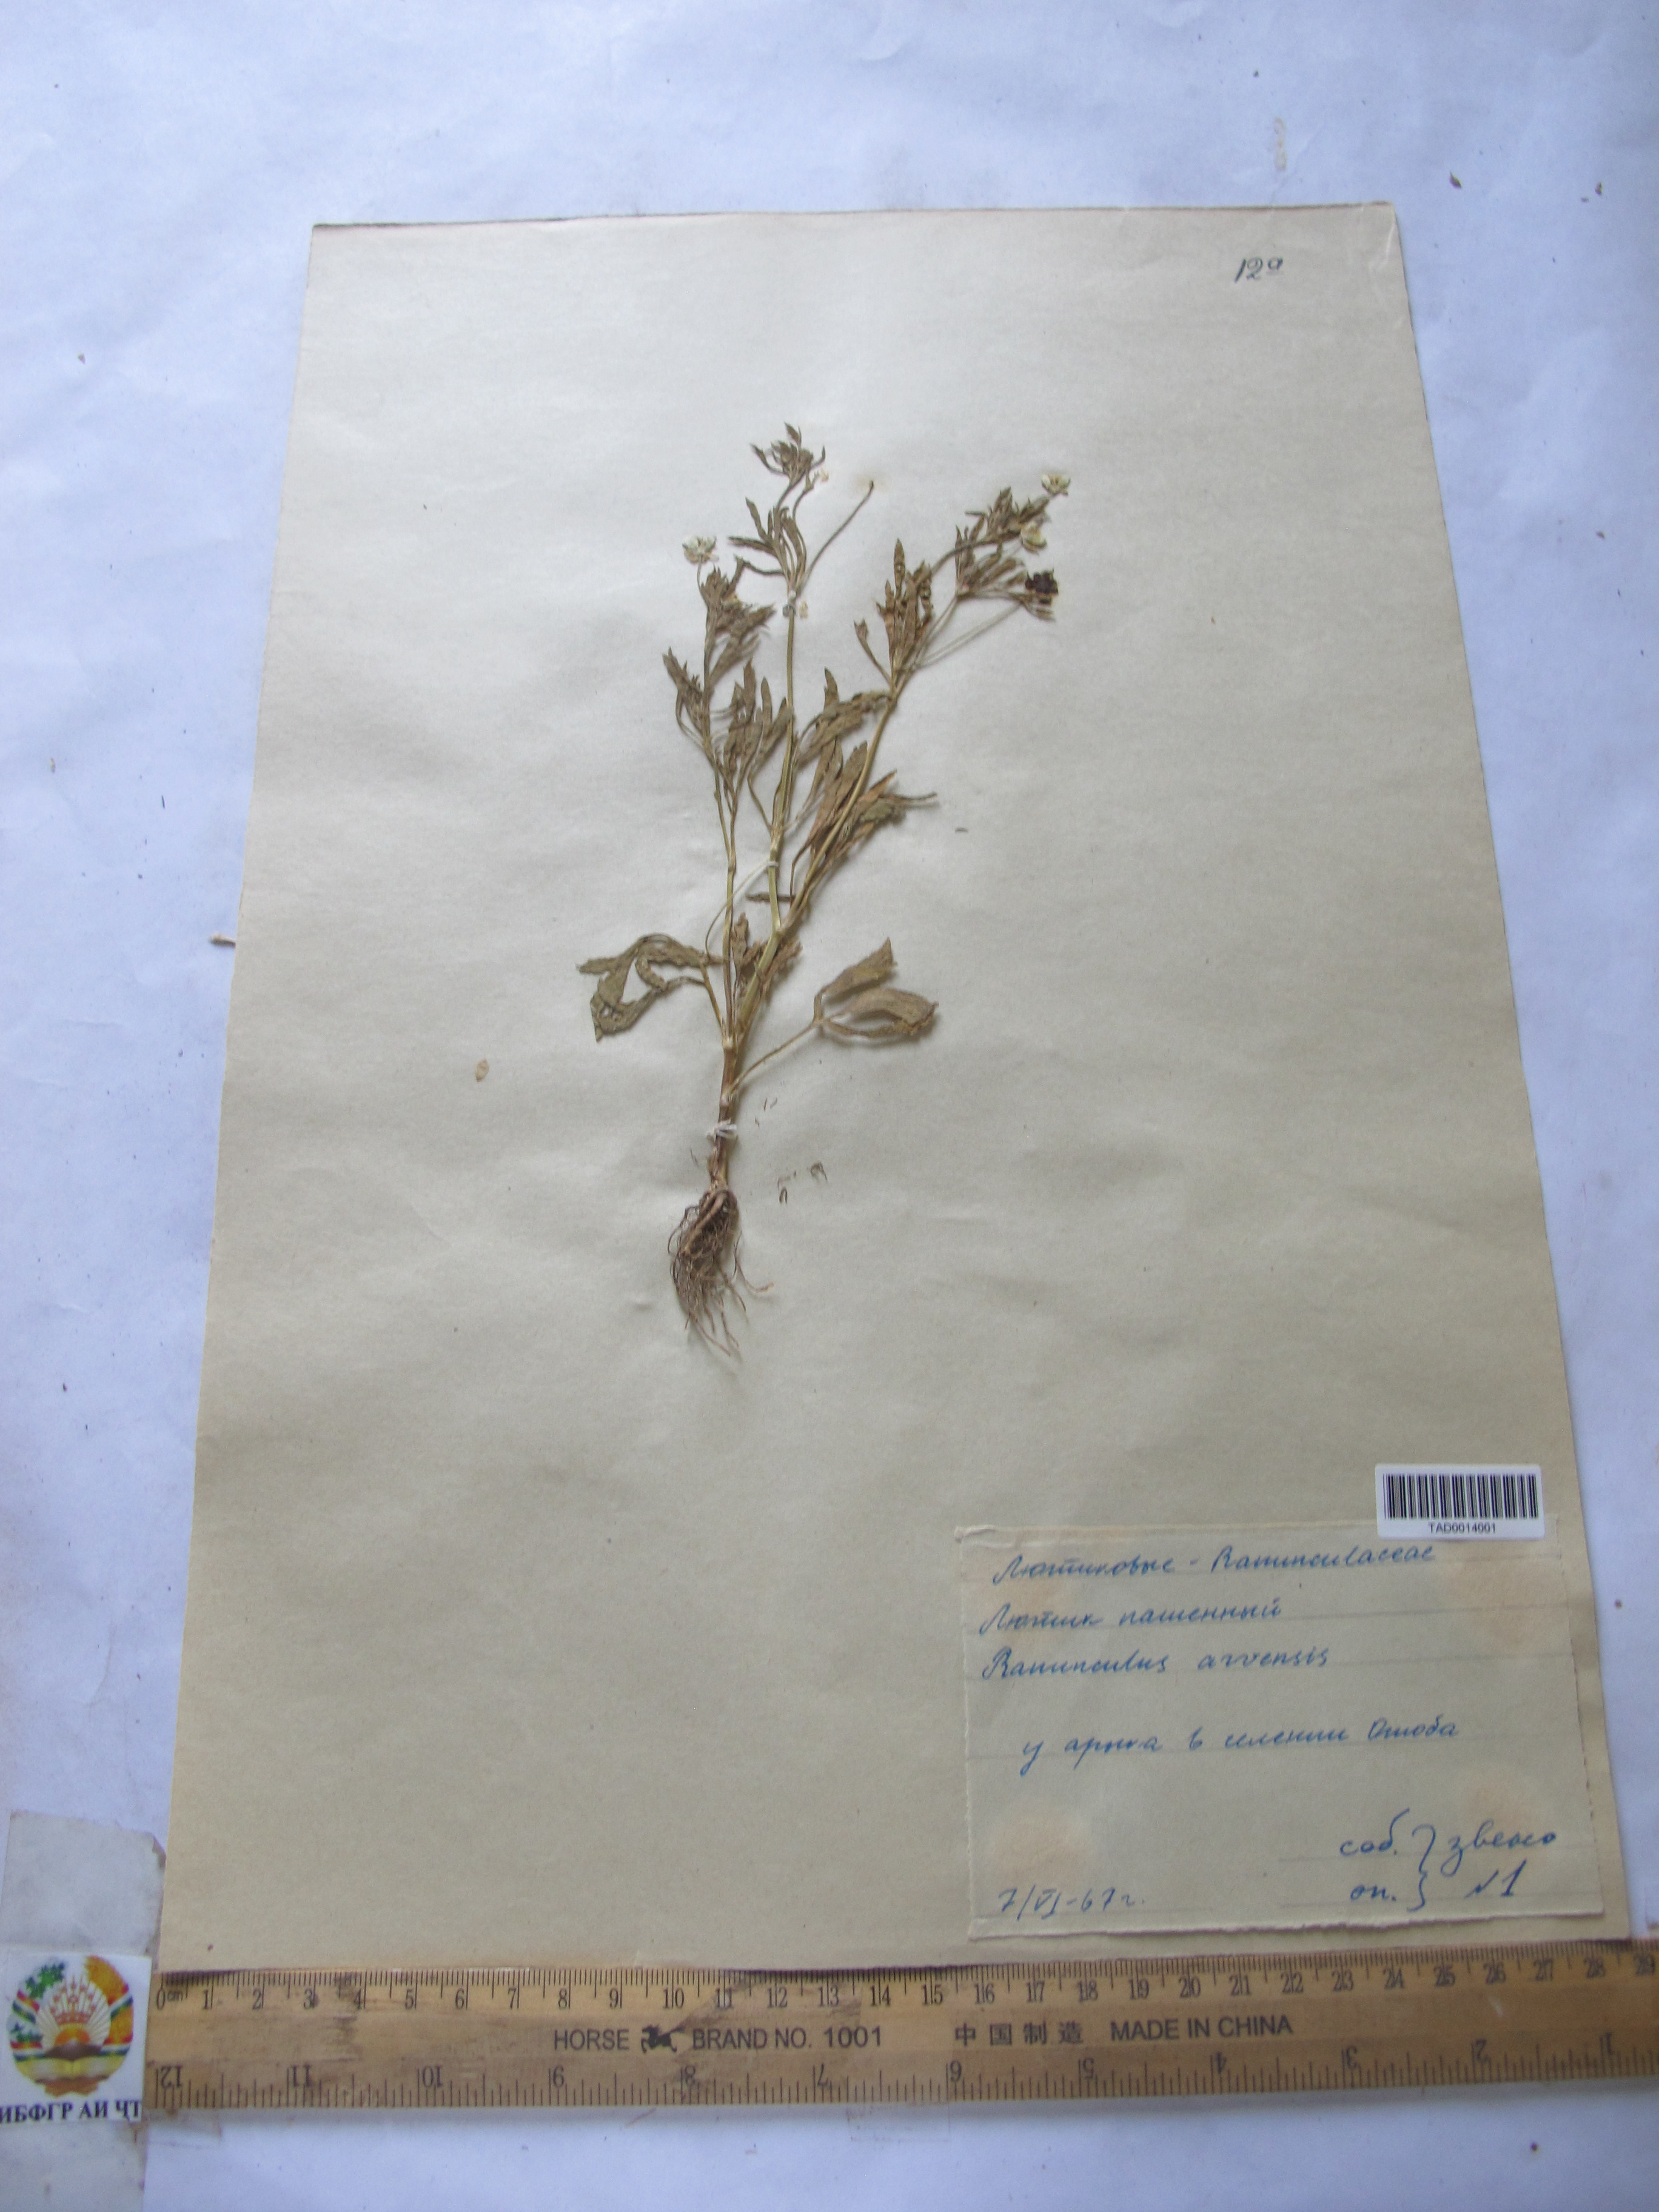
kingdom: Plantae
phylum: Tracheophyta
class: Magnoliopsida
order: Ranunculales
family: Ranunculaceae
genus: Ranunculus
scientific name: Ranunculus arvensis
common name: Corn buttercup
